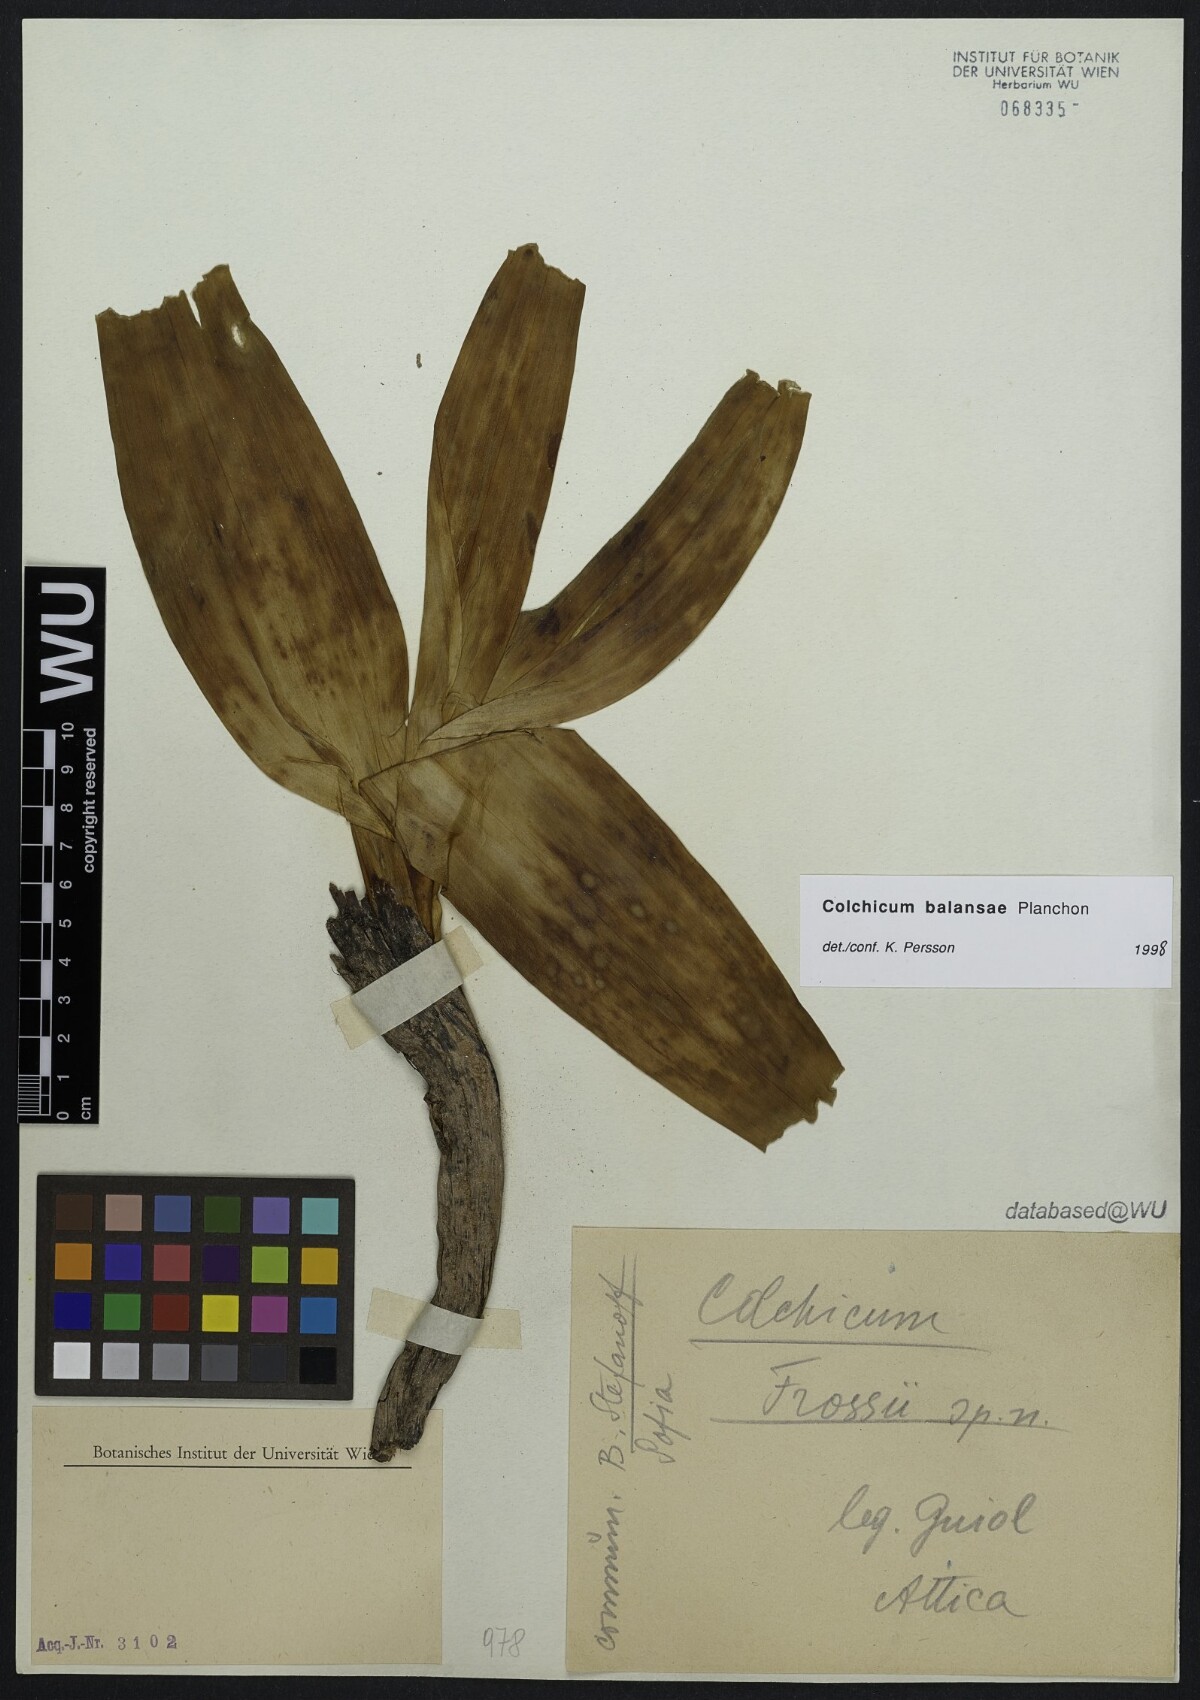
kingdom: Plantae
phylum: Tracheophyta
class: Liliopsida
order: Liliales
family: Colchicaceae
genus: Colchicum
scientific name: Colchicum
